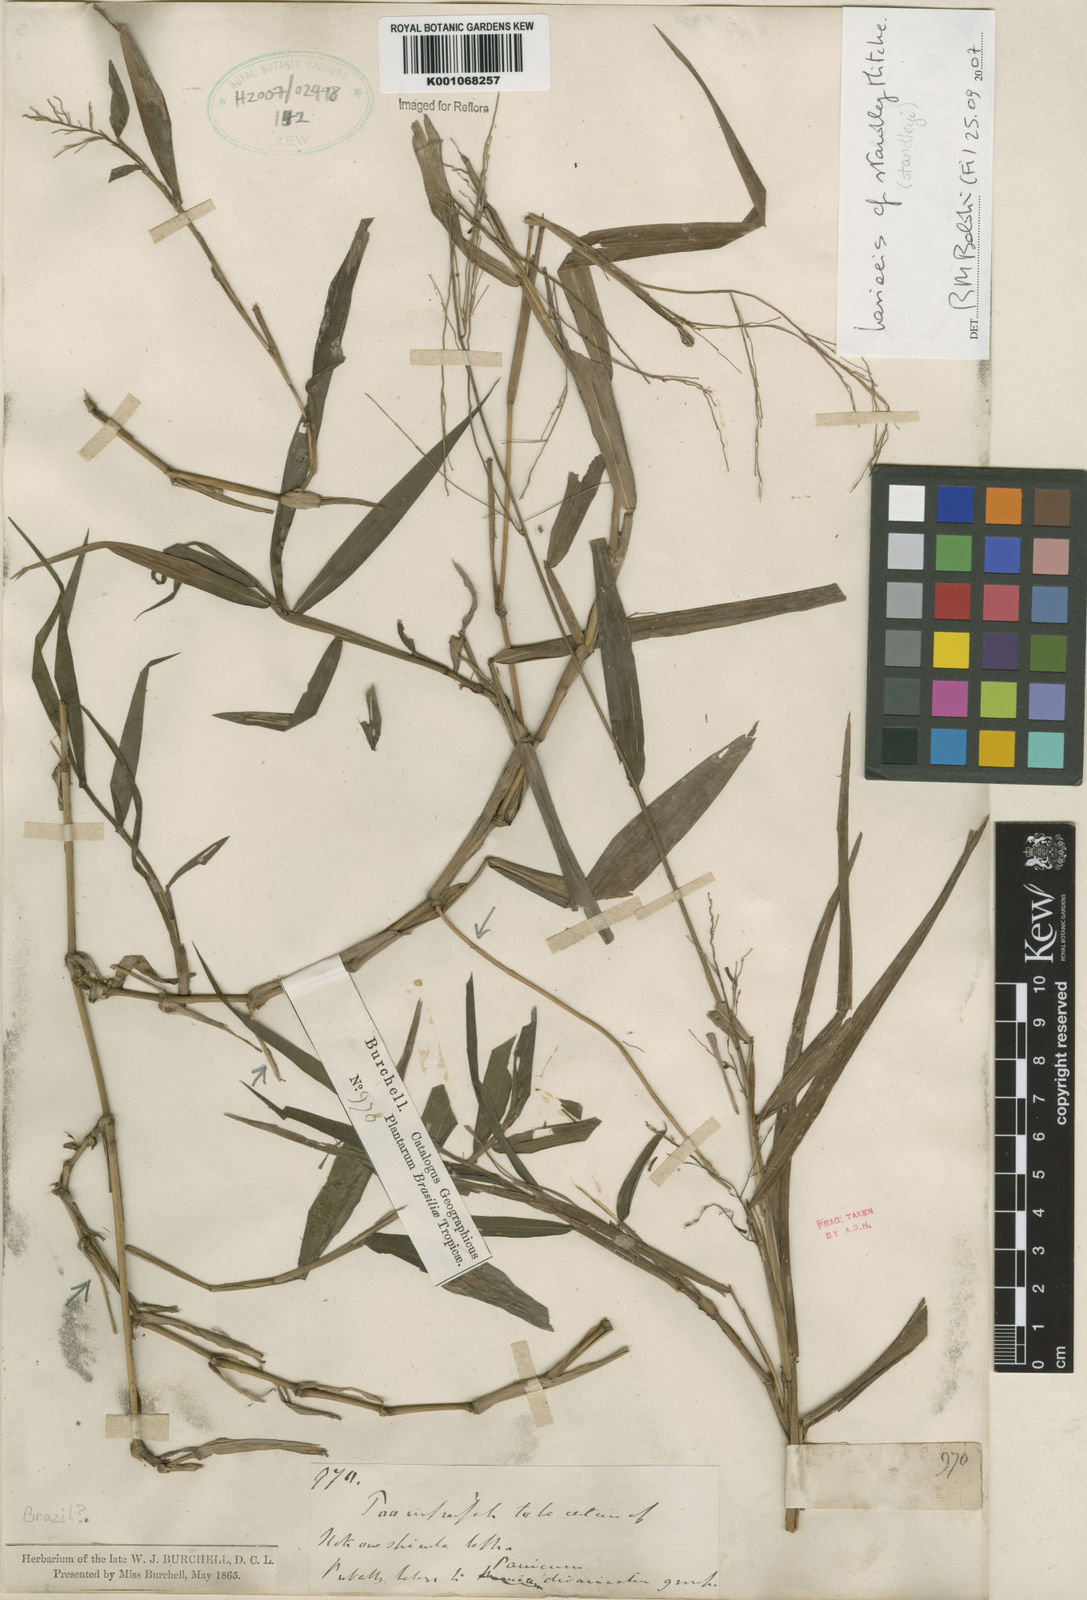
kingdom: Plantae
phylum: Tracheophyta
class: Liliopsida
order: Poales
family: Poaceae
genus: Lasiacis
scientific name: Lasiacis standleyi
